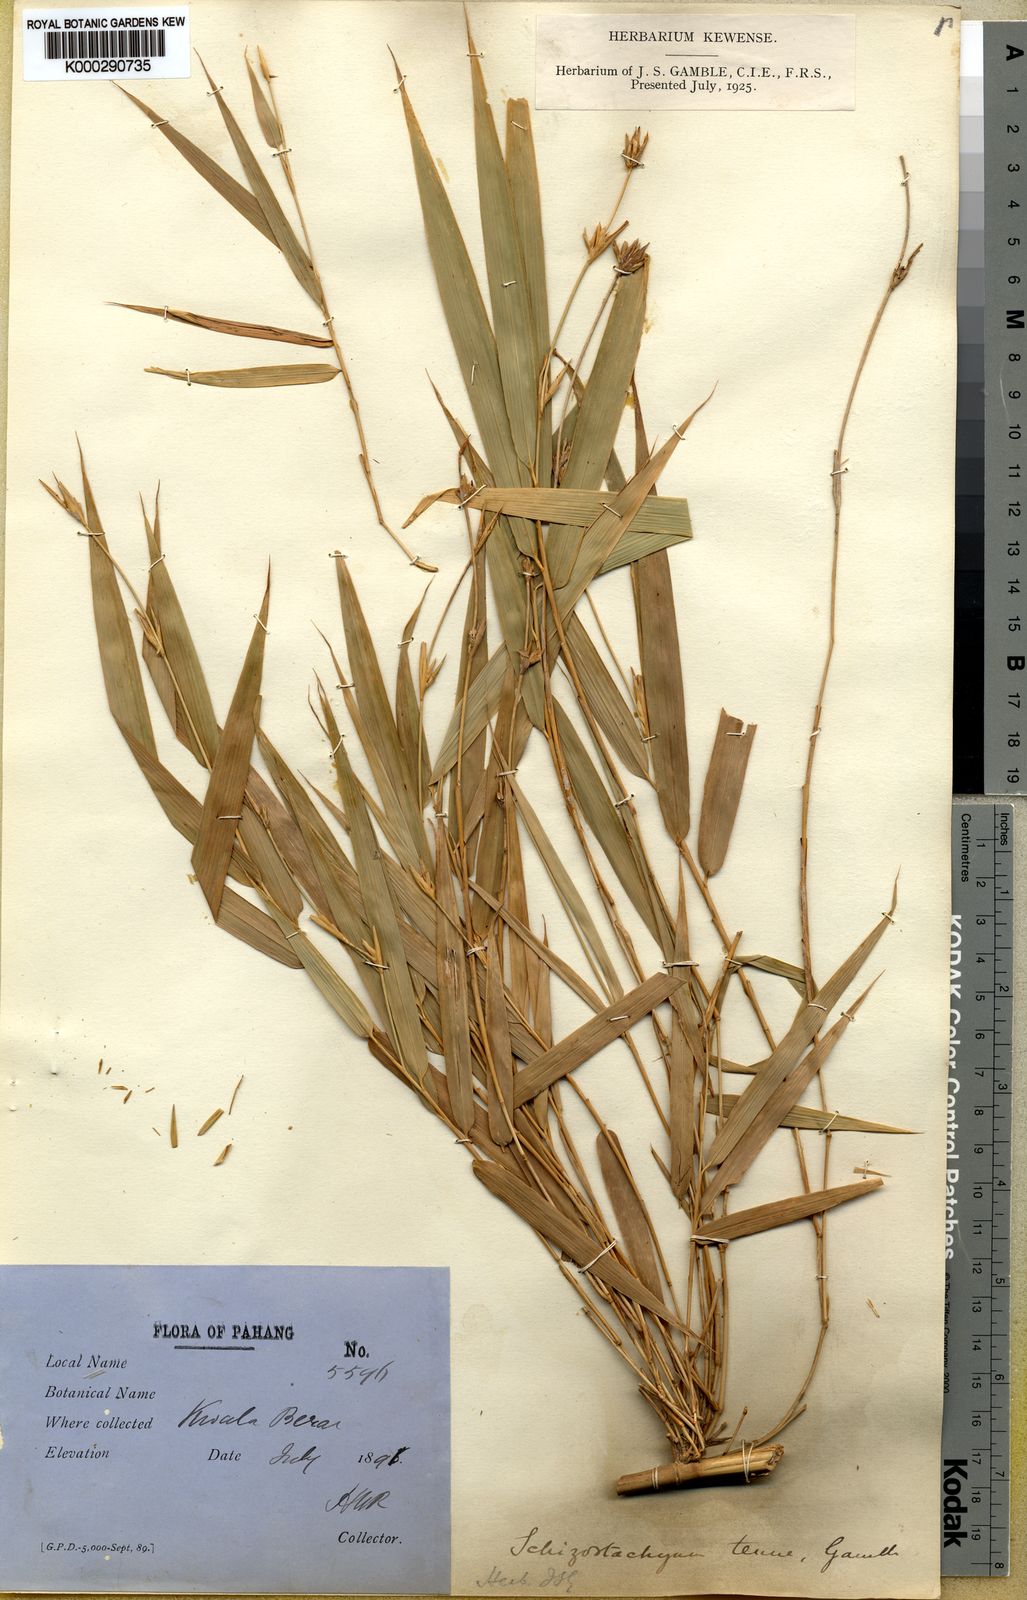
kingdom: Plantae
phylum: Tracheophyta
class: Liliopsida
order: Poales
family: Poaceae
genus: Schizostachyum
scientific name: Schizostachyum gracile
